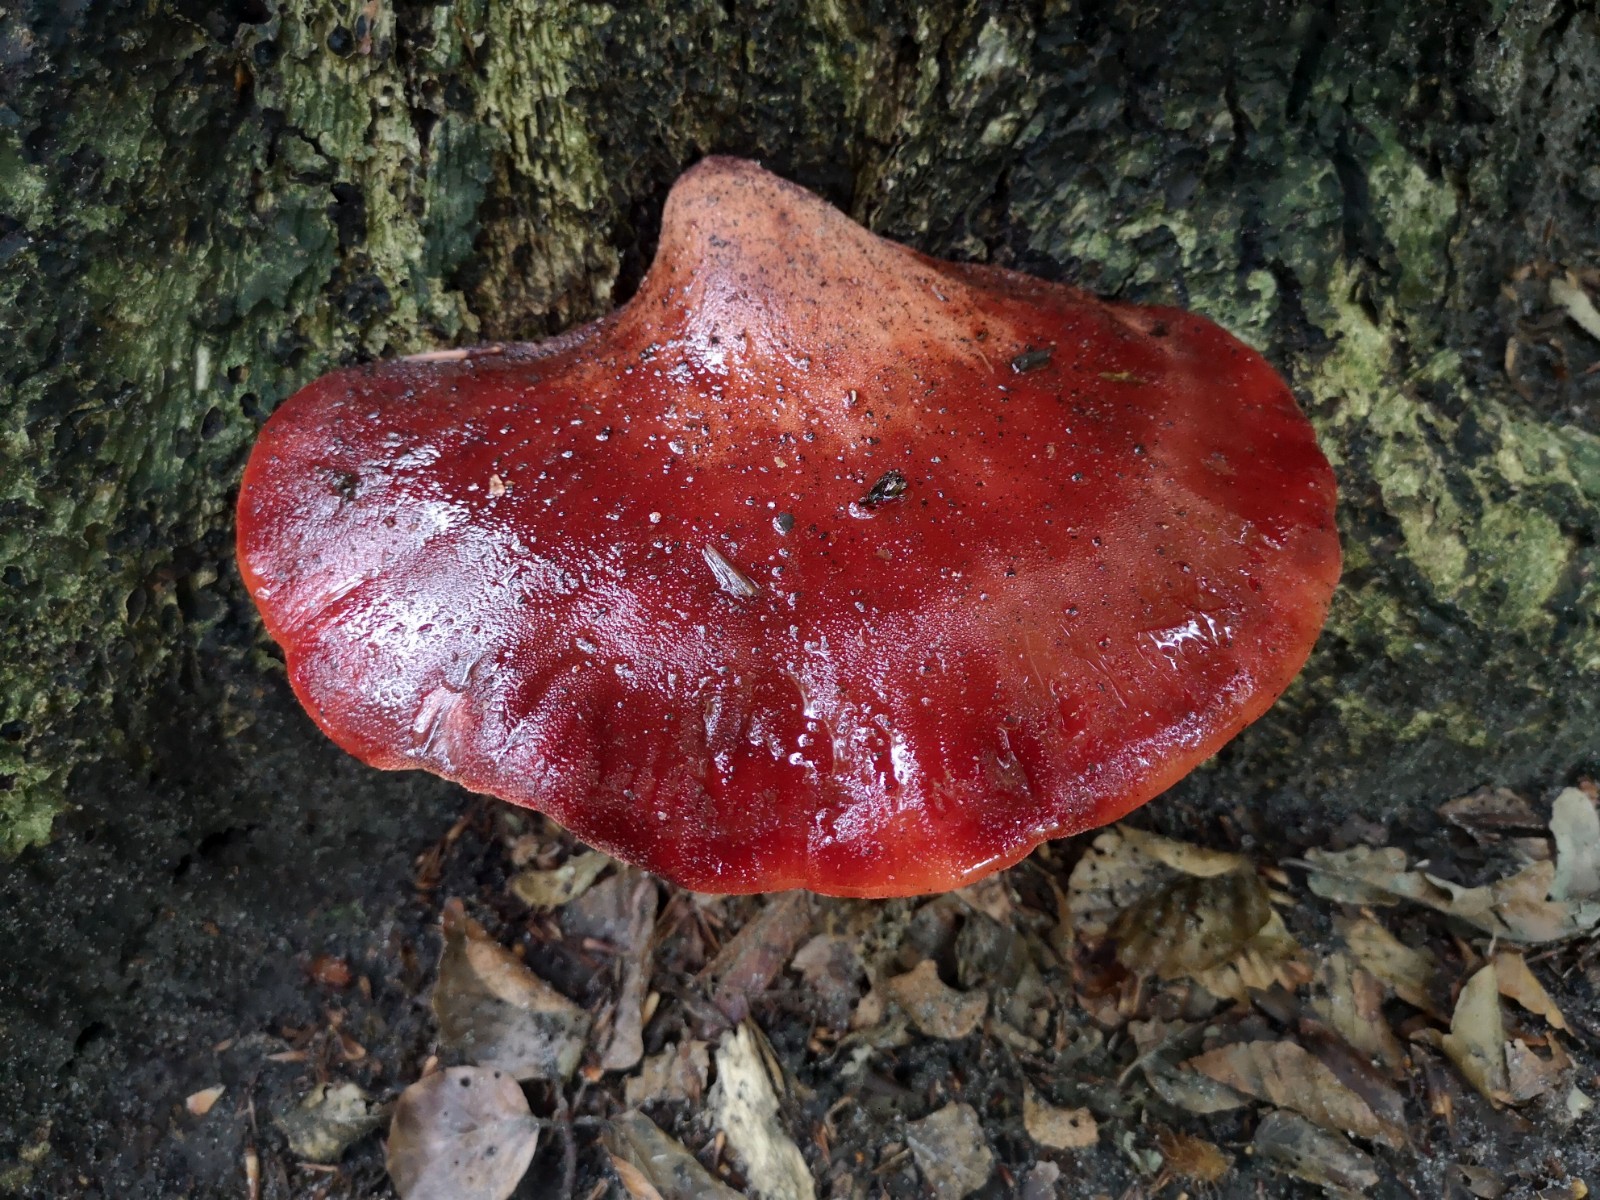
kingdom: Fungi
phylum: Basidiomycota
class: Agaricomycetes
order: Agaricales
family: Fistulinaceae
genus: Fistulina
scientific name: Fistulina hepatica
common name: oksetunge
